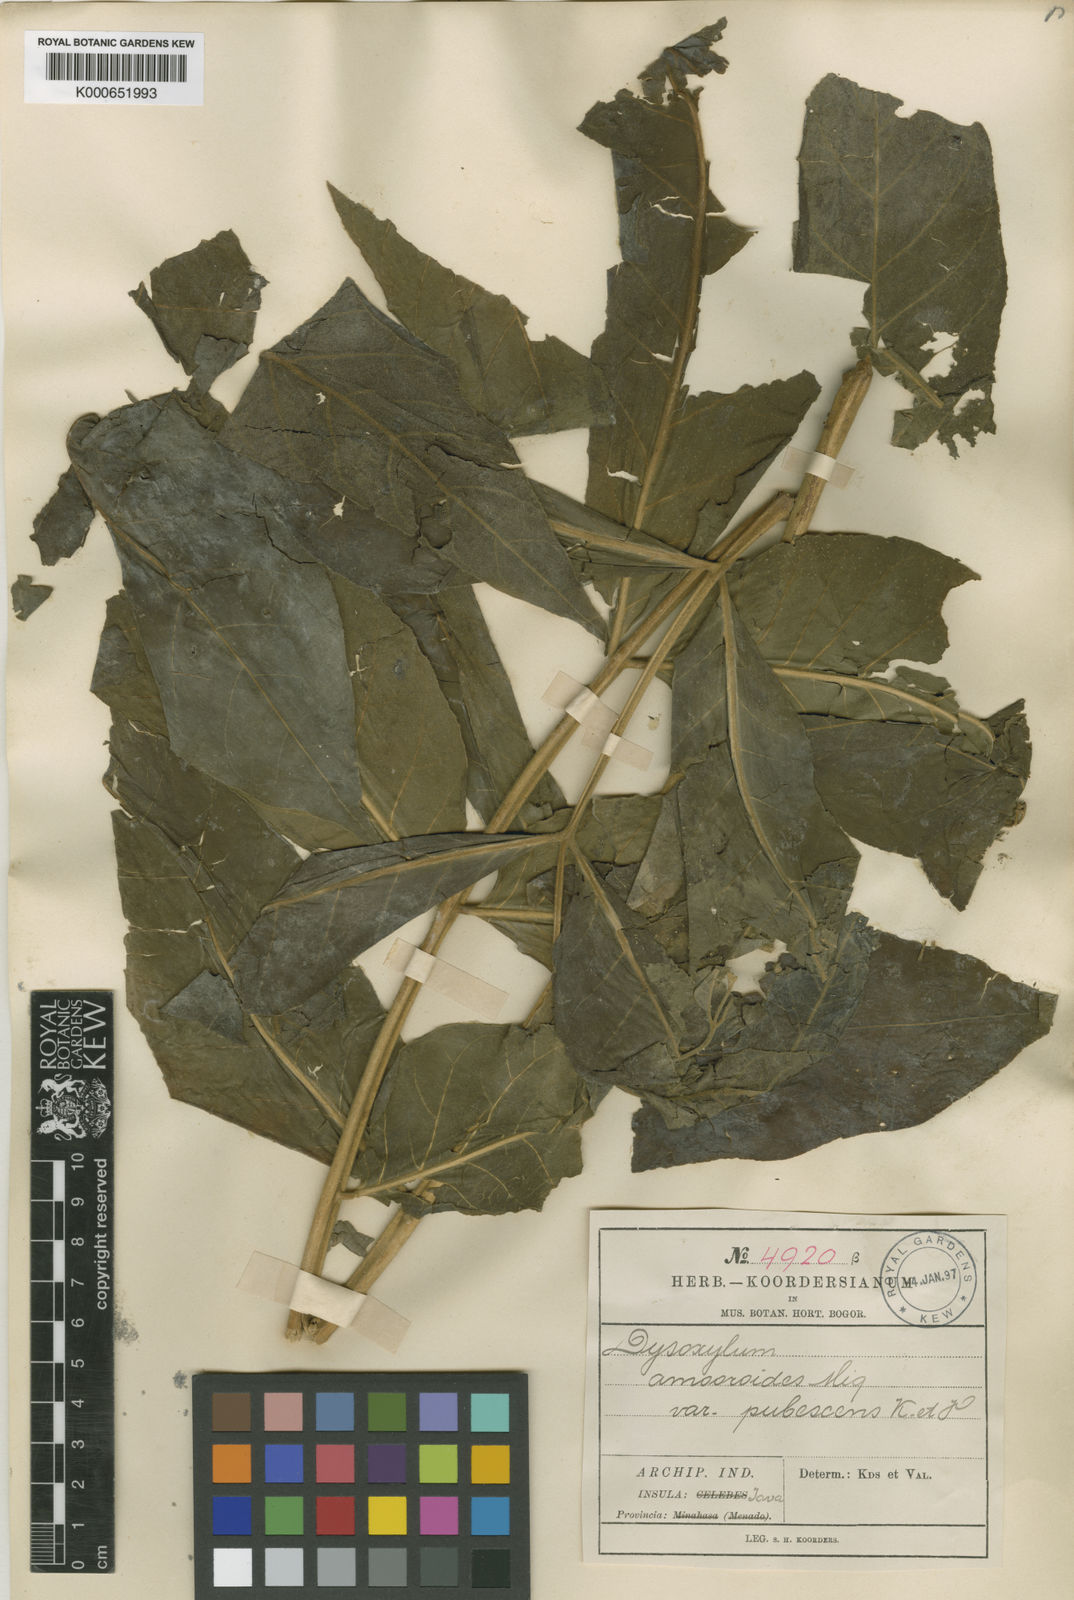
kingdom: Plantae
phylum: Tracheophyta
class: Magnoliopsida
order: Sapindales
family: Meliaceae
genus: Didymocheton
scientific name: Didymocheton gaudichaudianus
